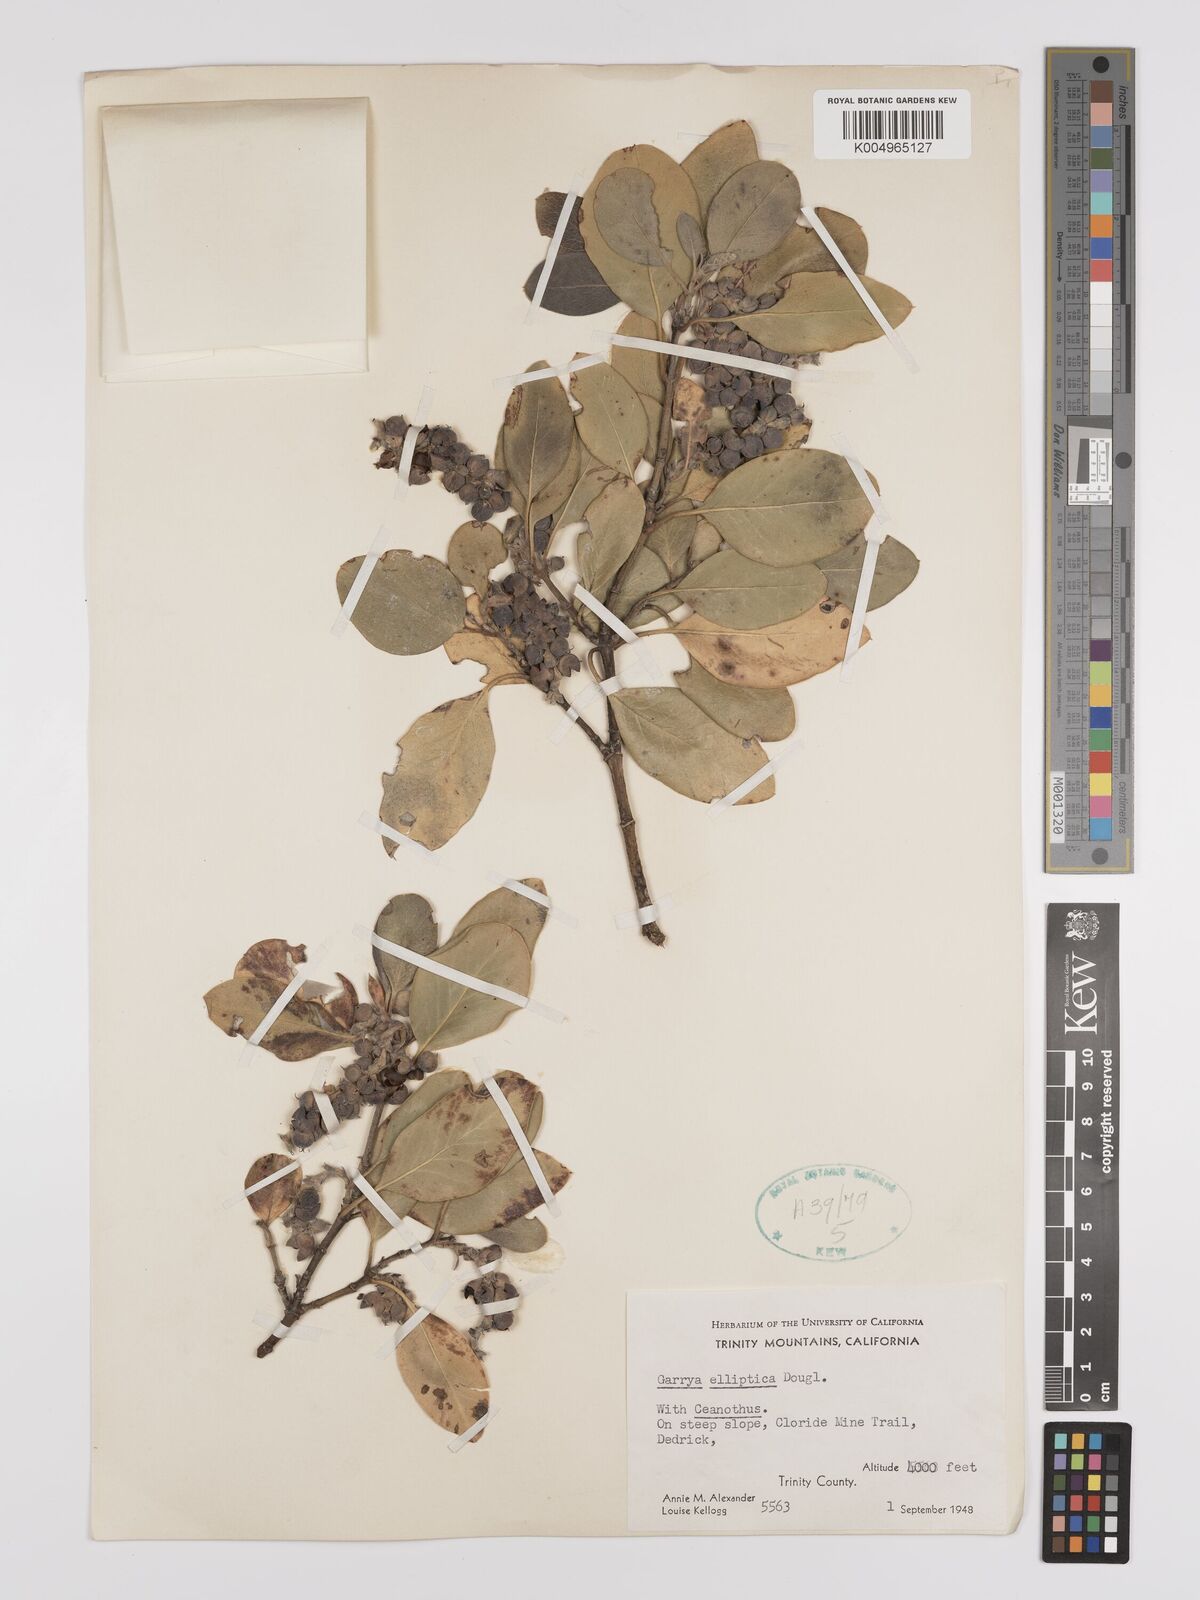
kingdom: Plantae
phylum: Tracheophyta
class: Magnoliopsida
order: Garryales
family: Garryaceae
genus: Garrya
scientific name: Garrya elliptica
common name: Silk-tassel
